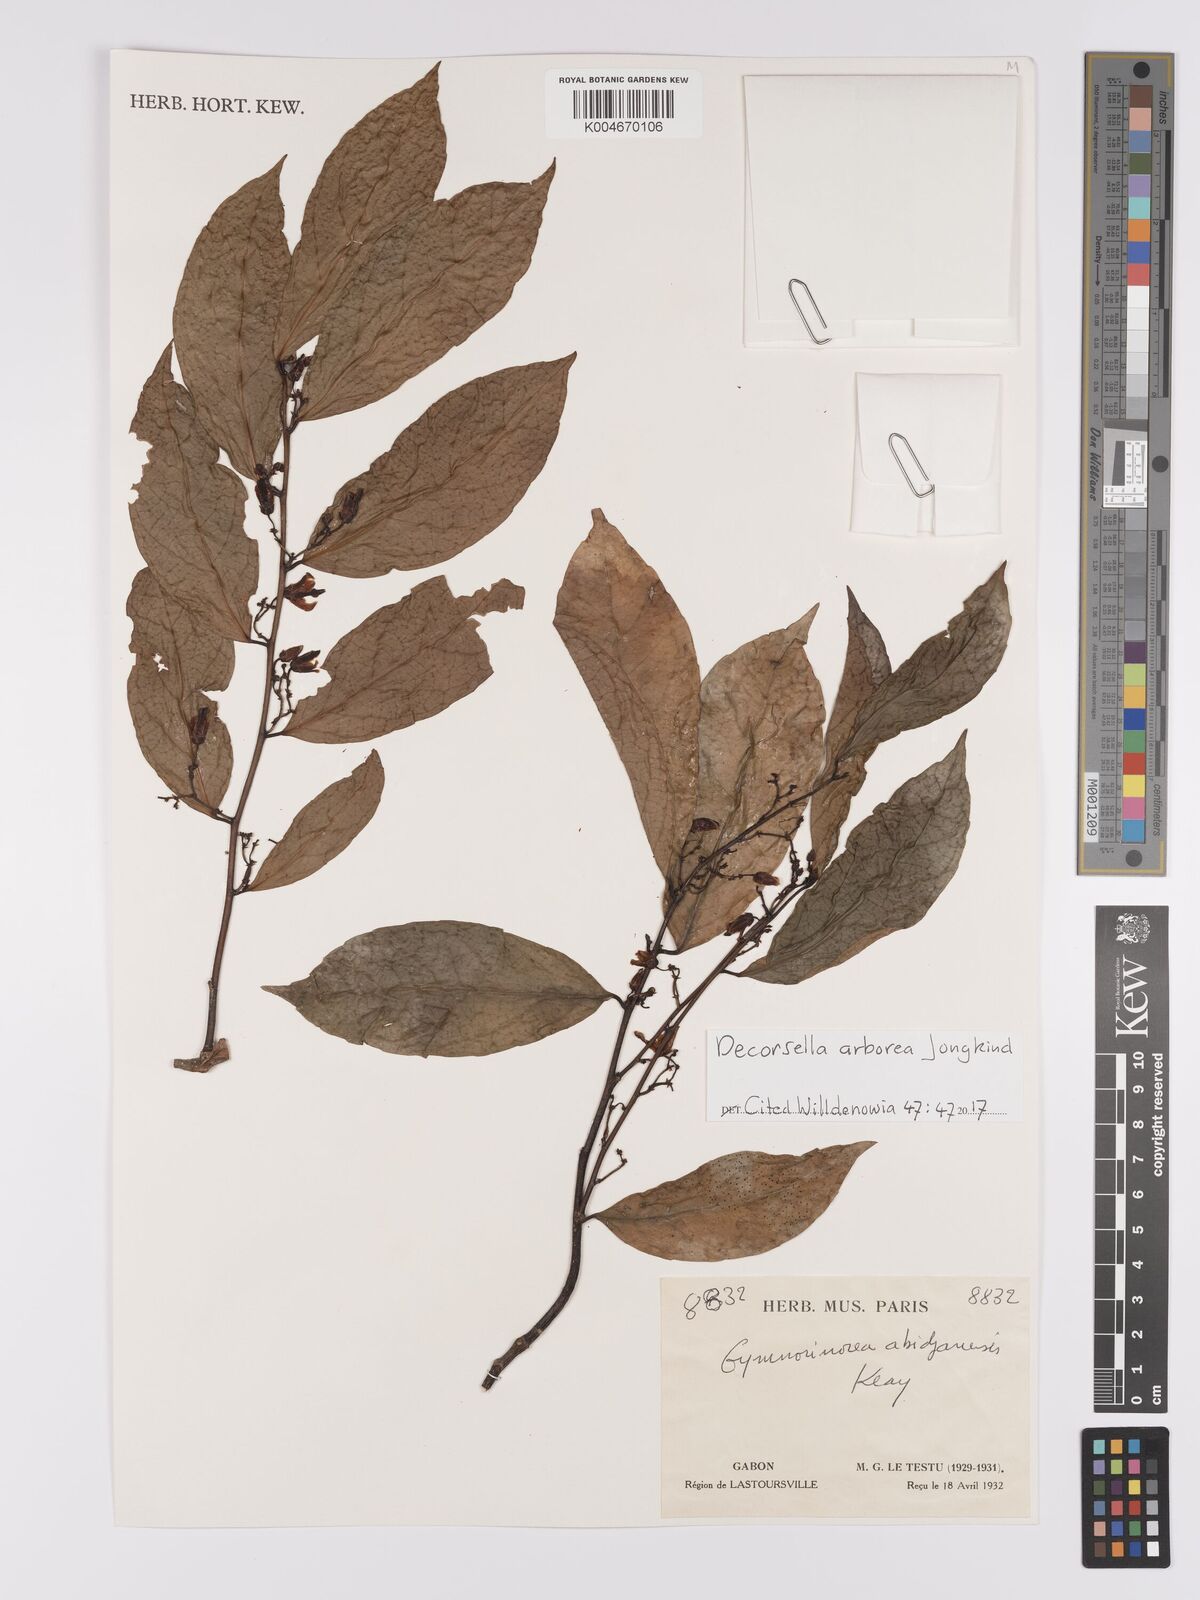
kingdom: Plantae
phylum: Tracheophyta
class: Magnoliopsida
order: Malpighiales
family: Violaceae
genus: Decorsella
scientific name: Decorsella arborea
